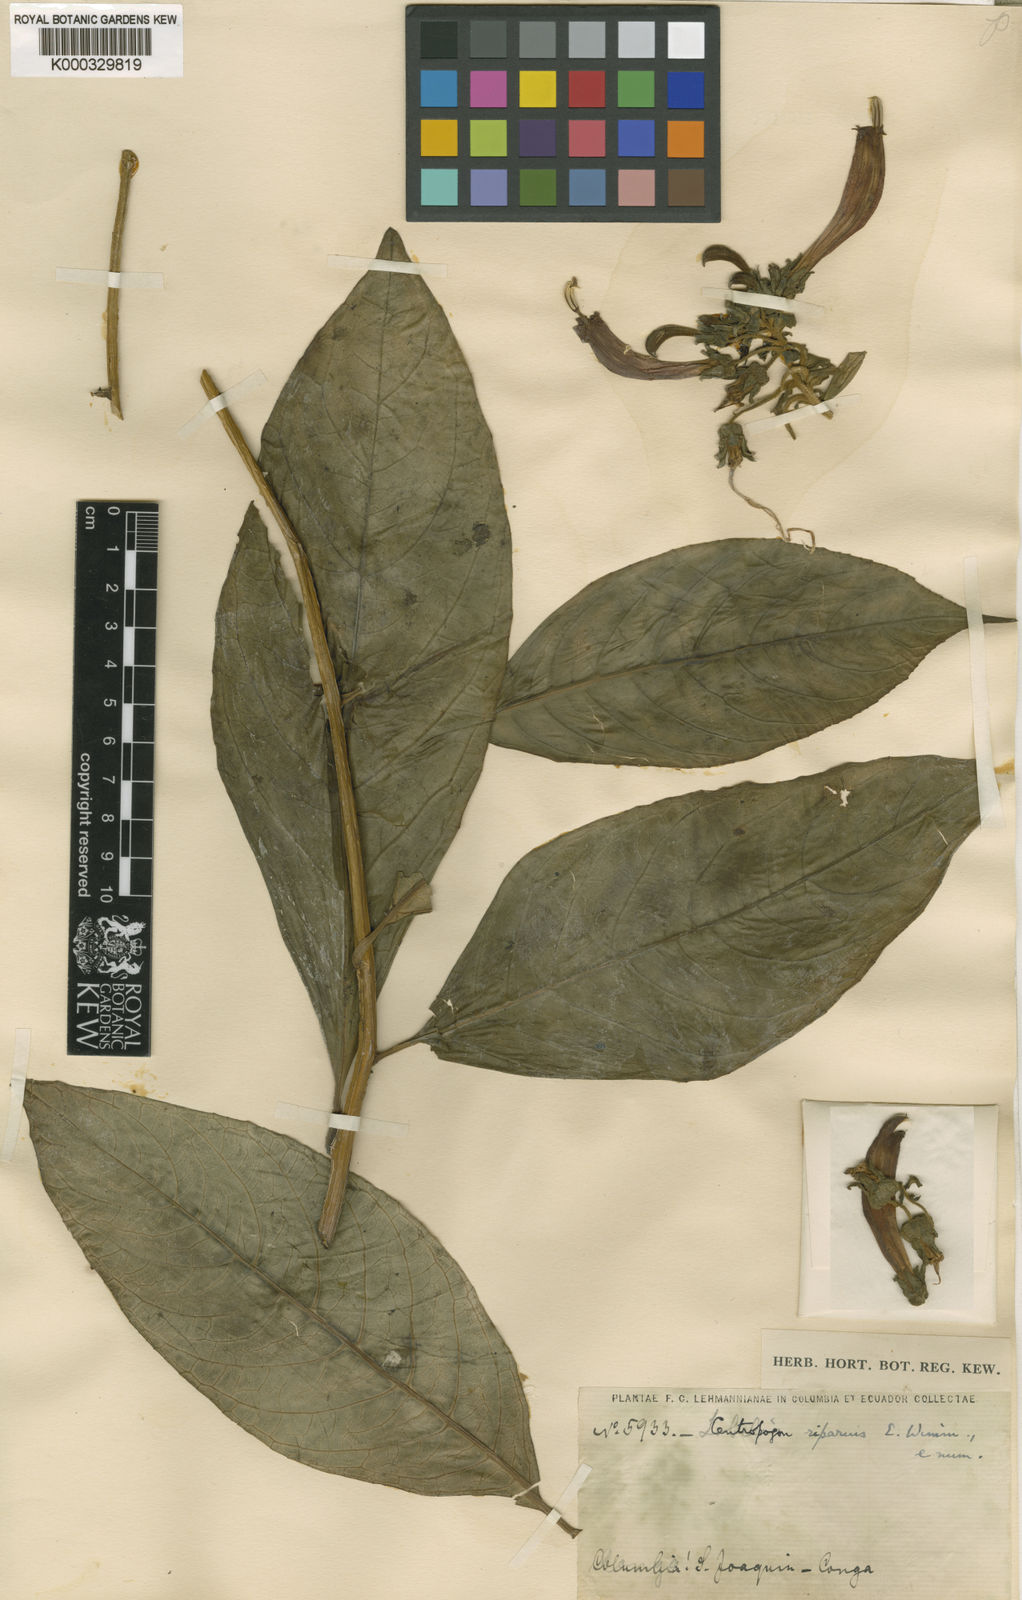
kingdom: Plantae
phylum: Tracheophyta
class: Magnoliopsida
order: Asterales
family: Campanulaceae
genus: Centropogon
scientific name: Centropogon solanifolius
